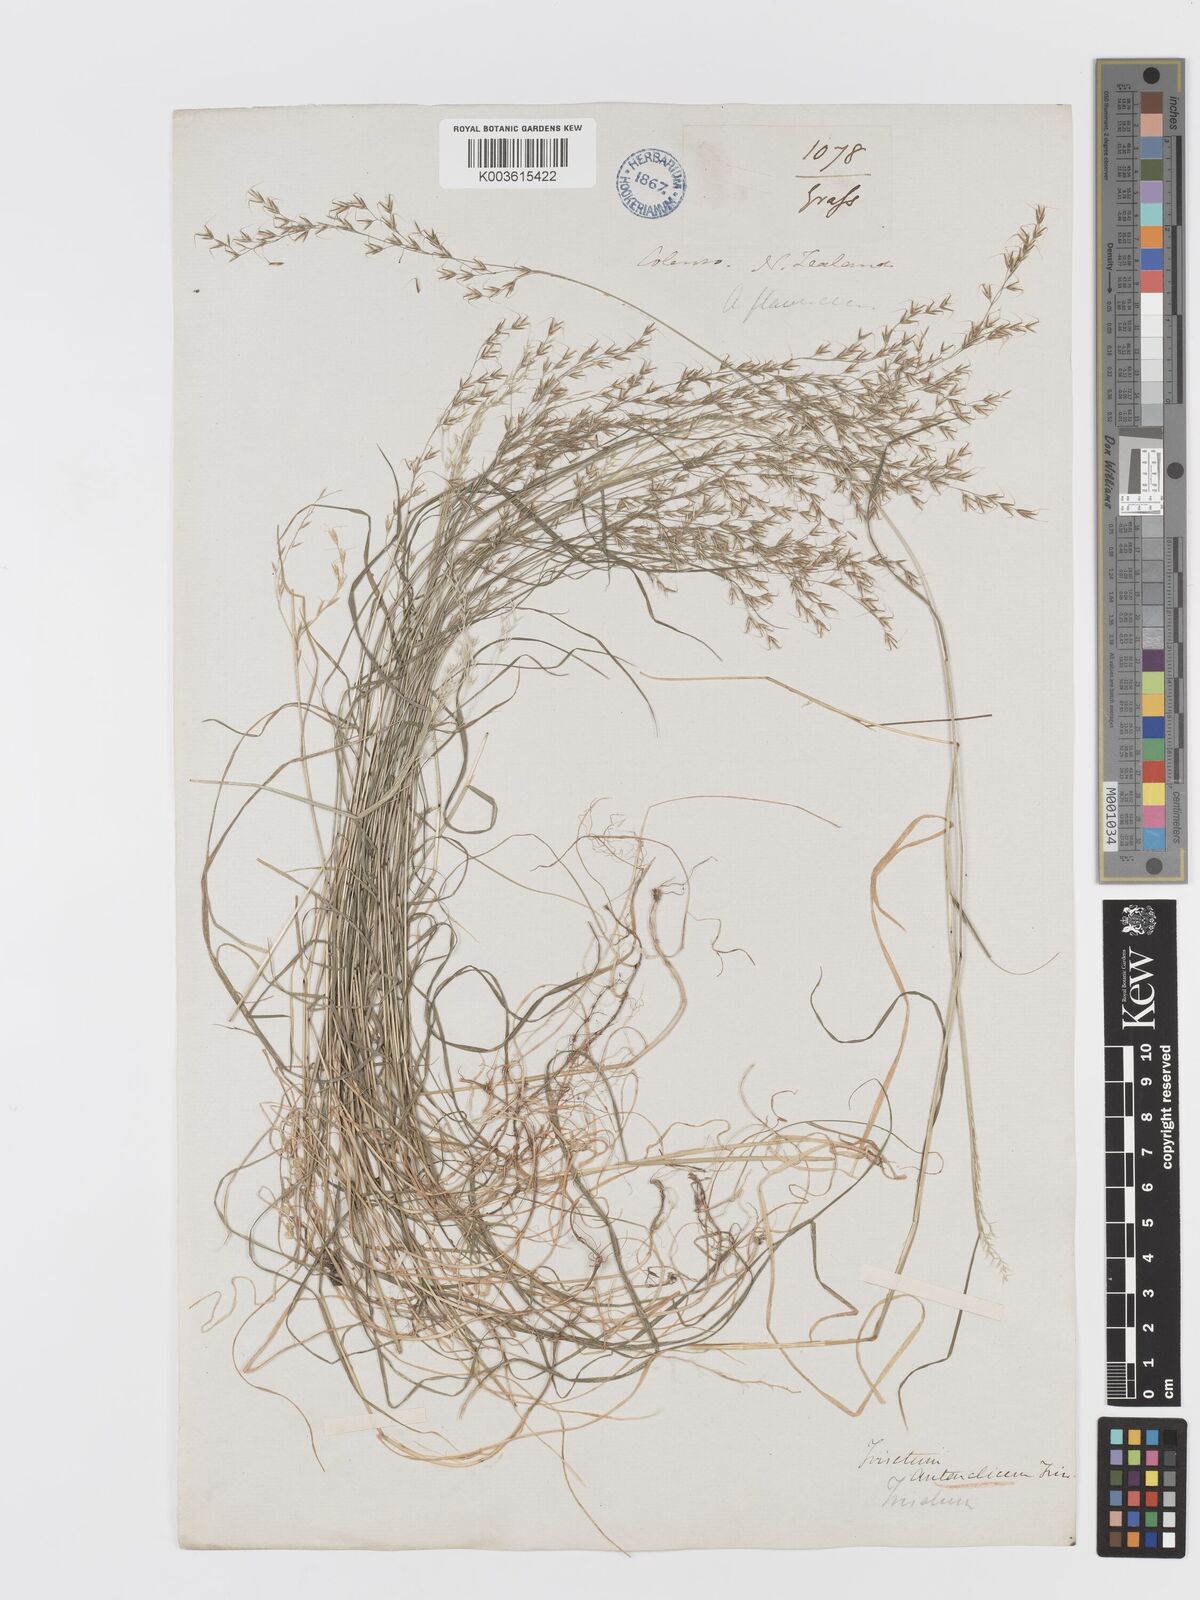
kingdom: Plantae
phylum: Tracheophyta
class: Liliopsida
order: Poales
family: Poaceae
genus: Koeleria
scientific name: Koeleria antarctica
